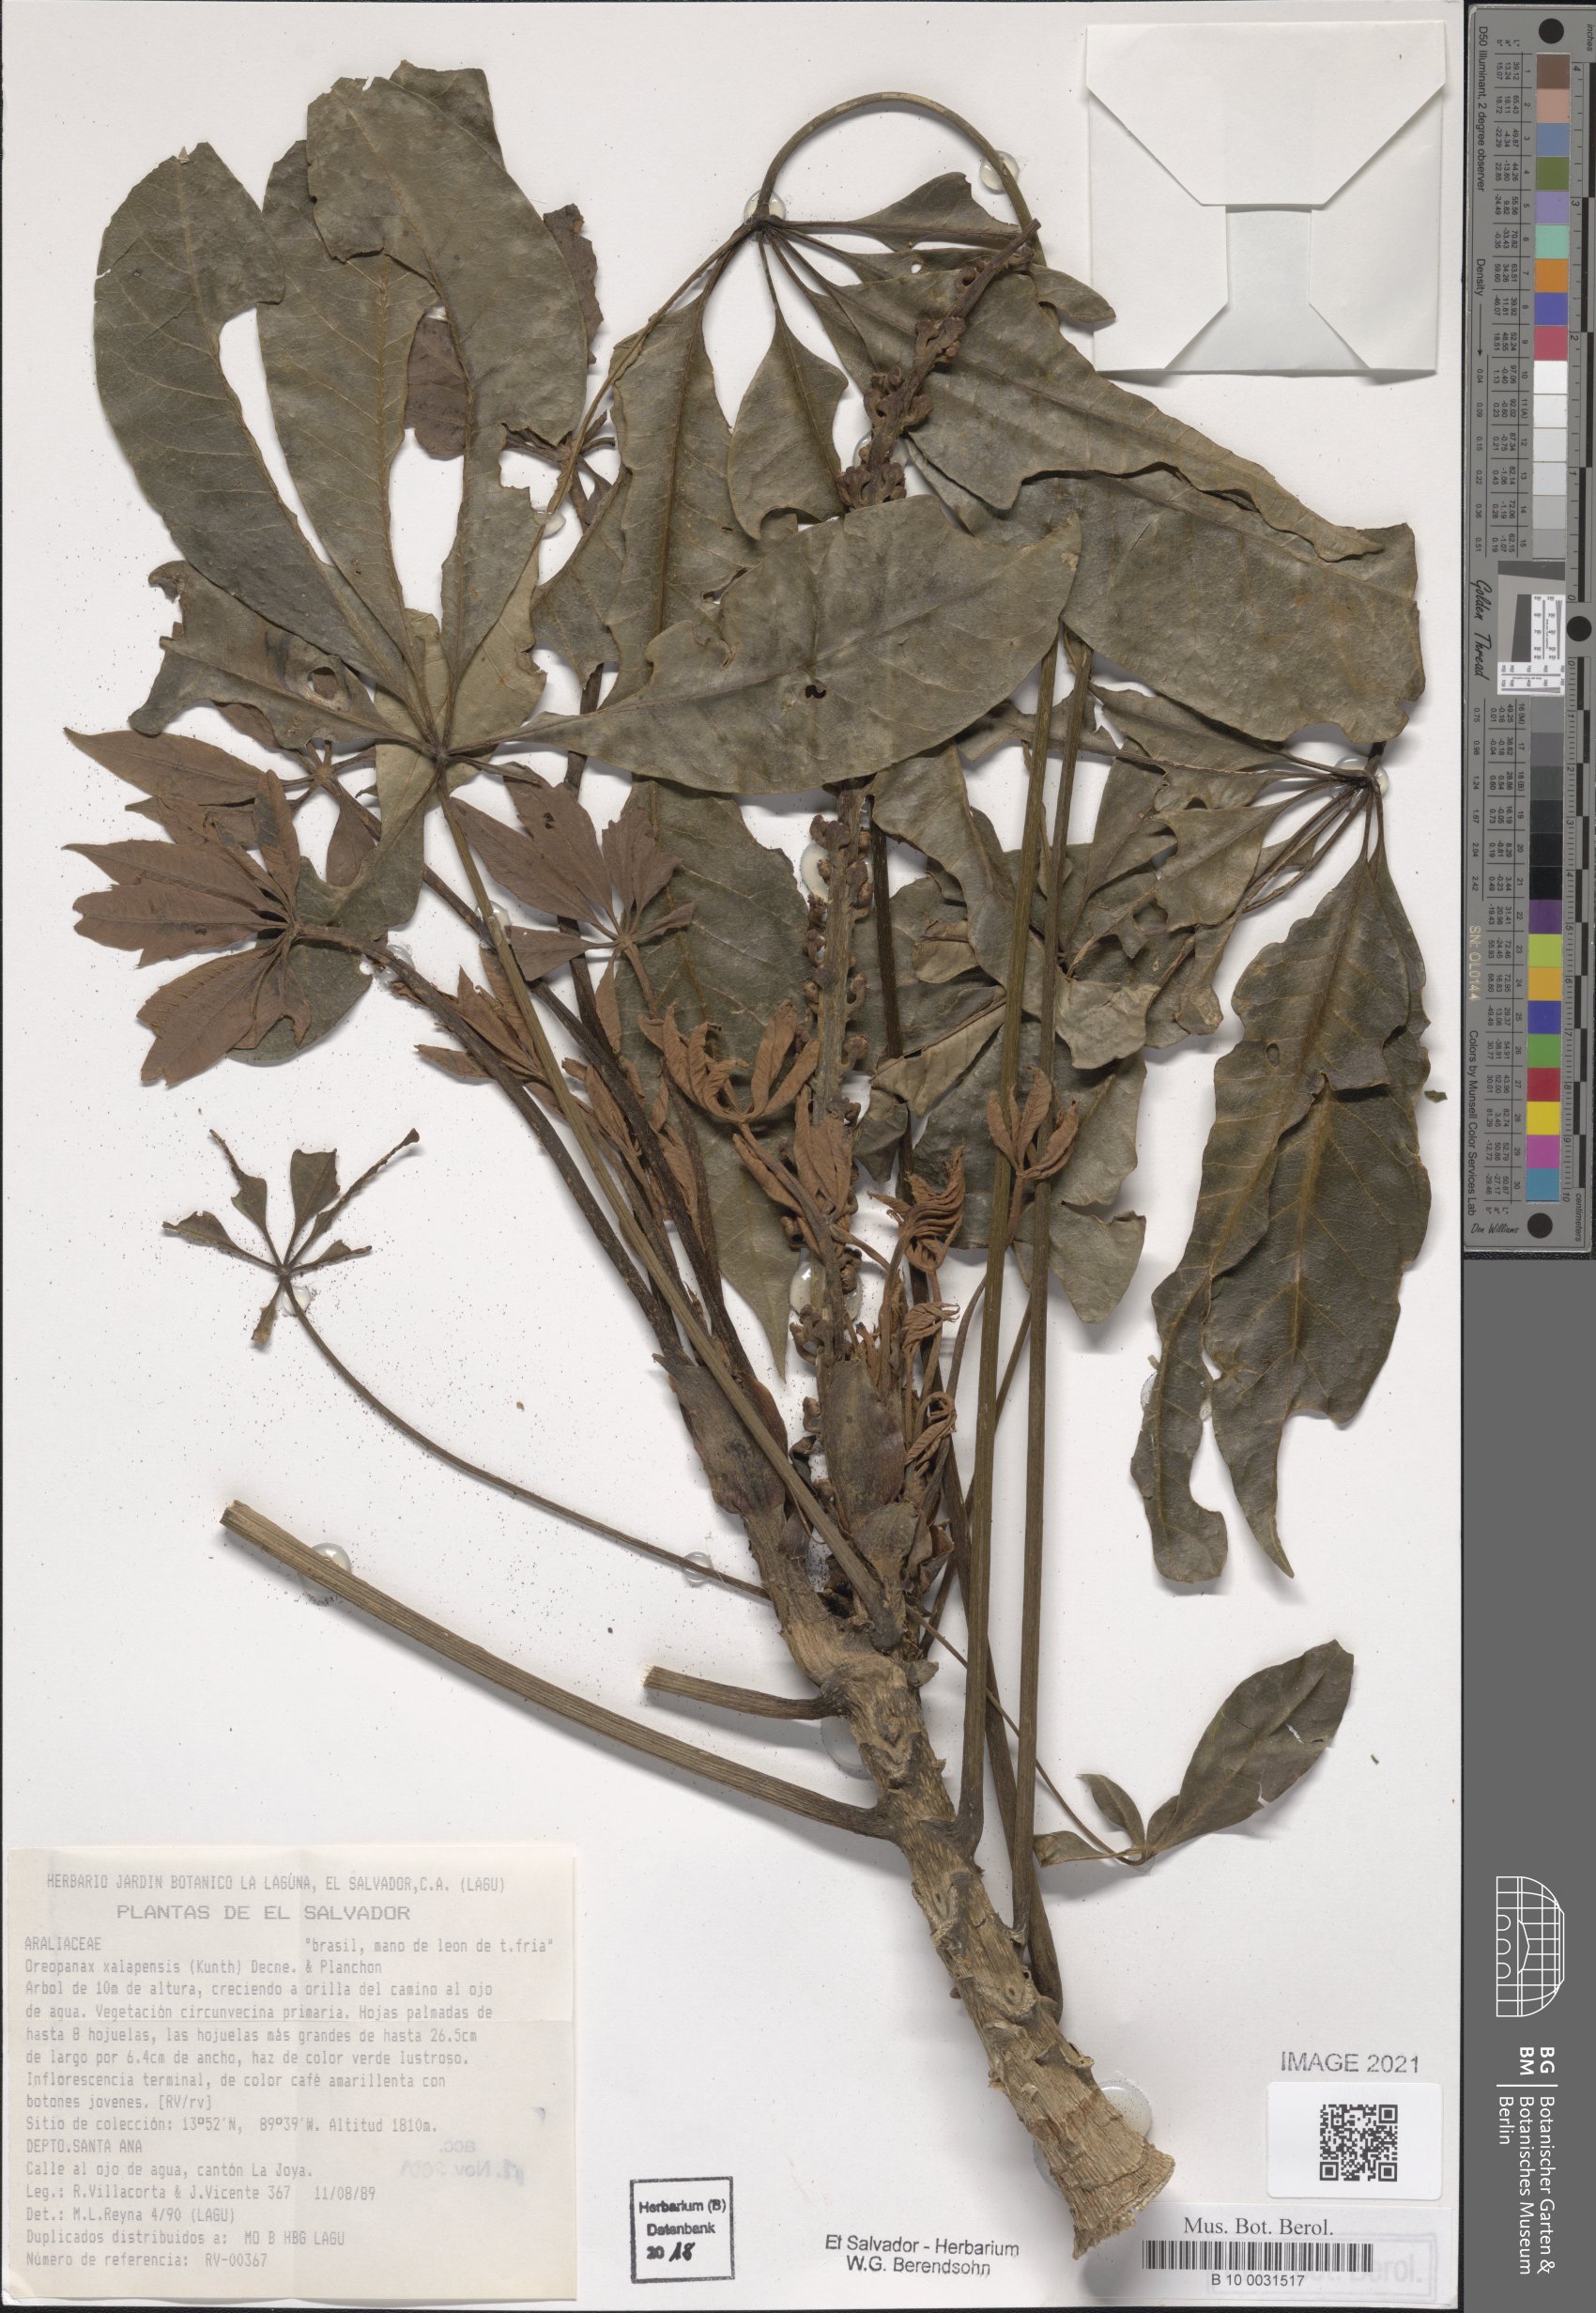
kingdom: Plantae
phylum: Tracheophyta
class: Magnoliopsida
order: Apiales
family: Araliaceae
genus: Oreopanax
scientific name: Oreopanax xalapensis
